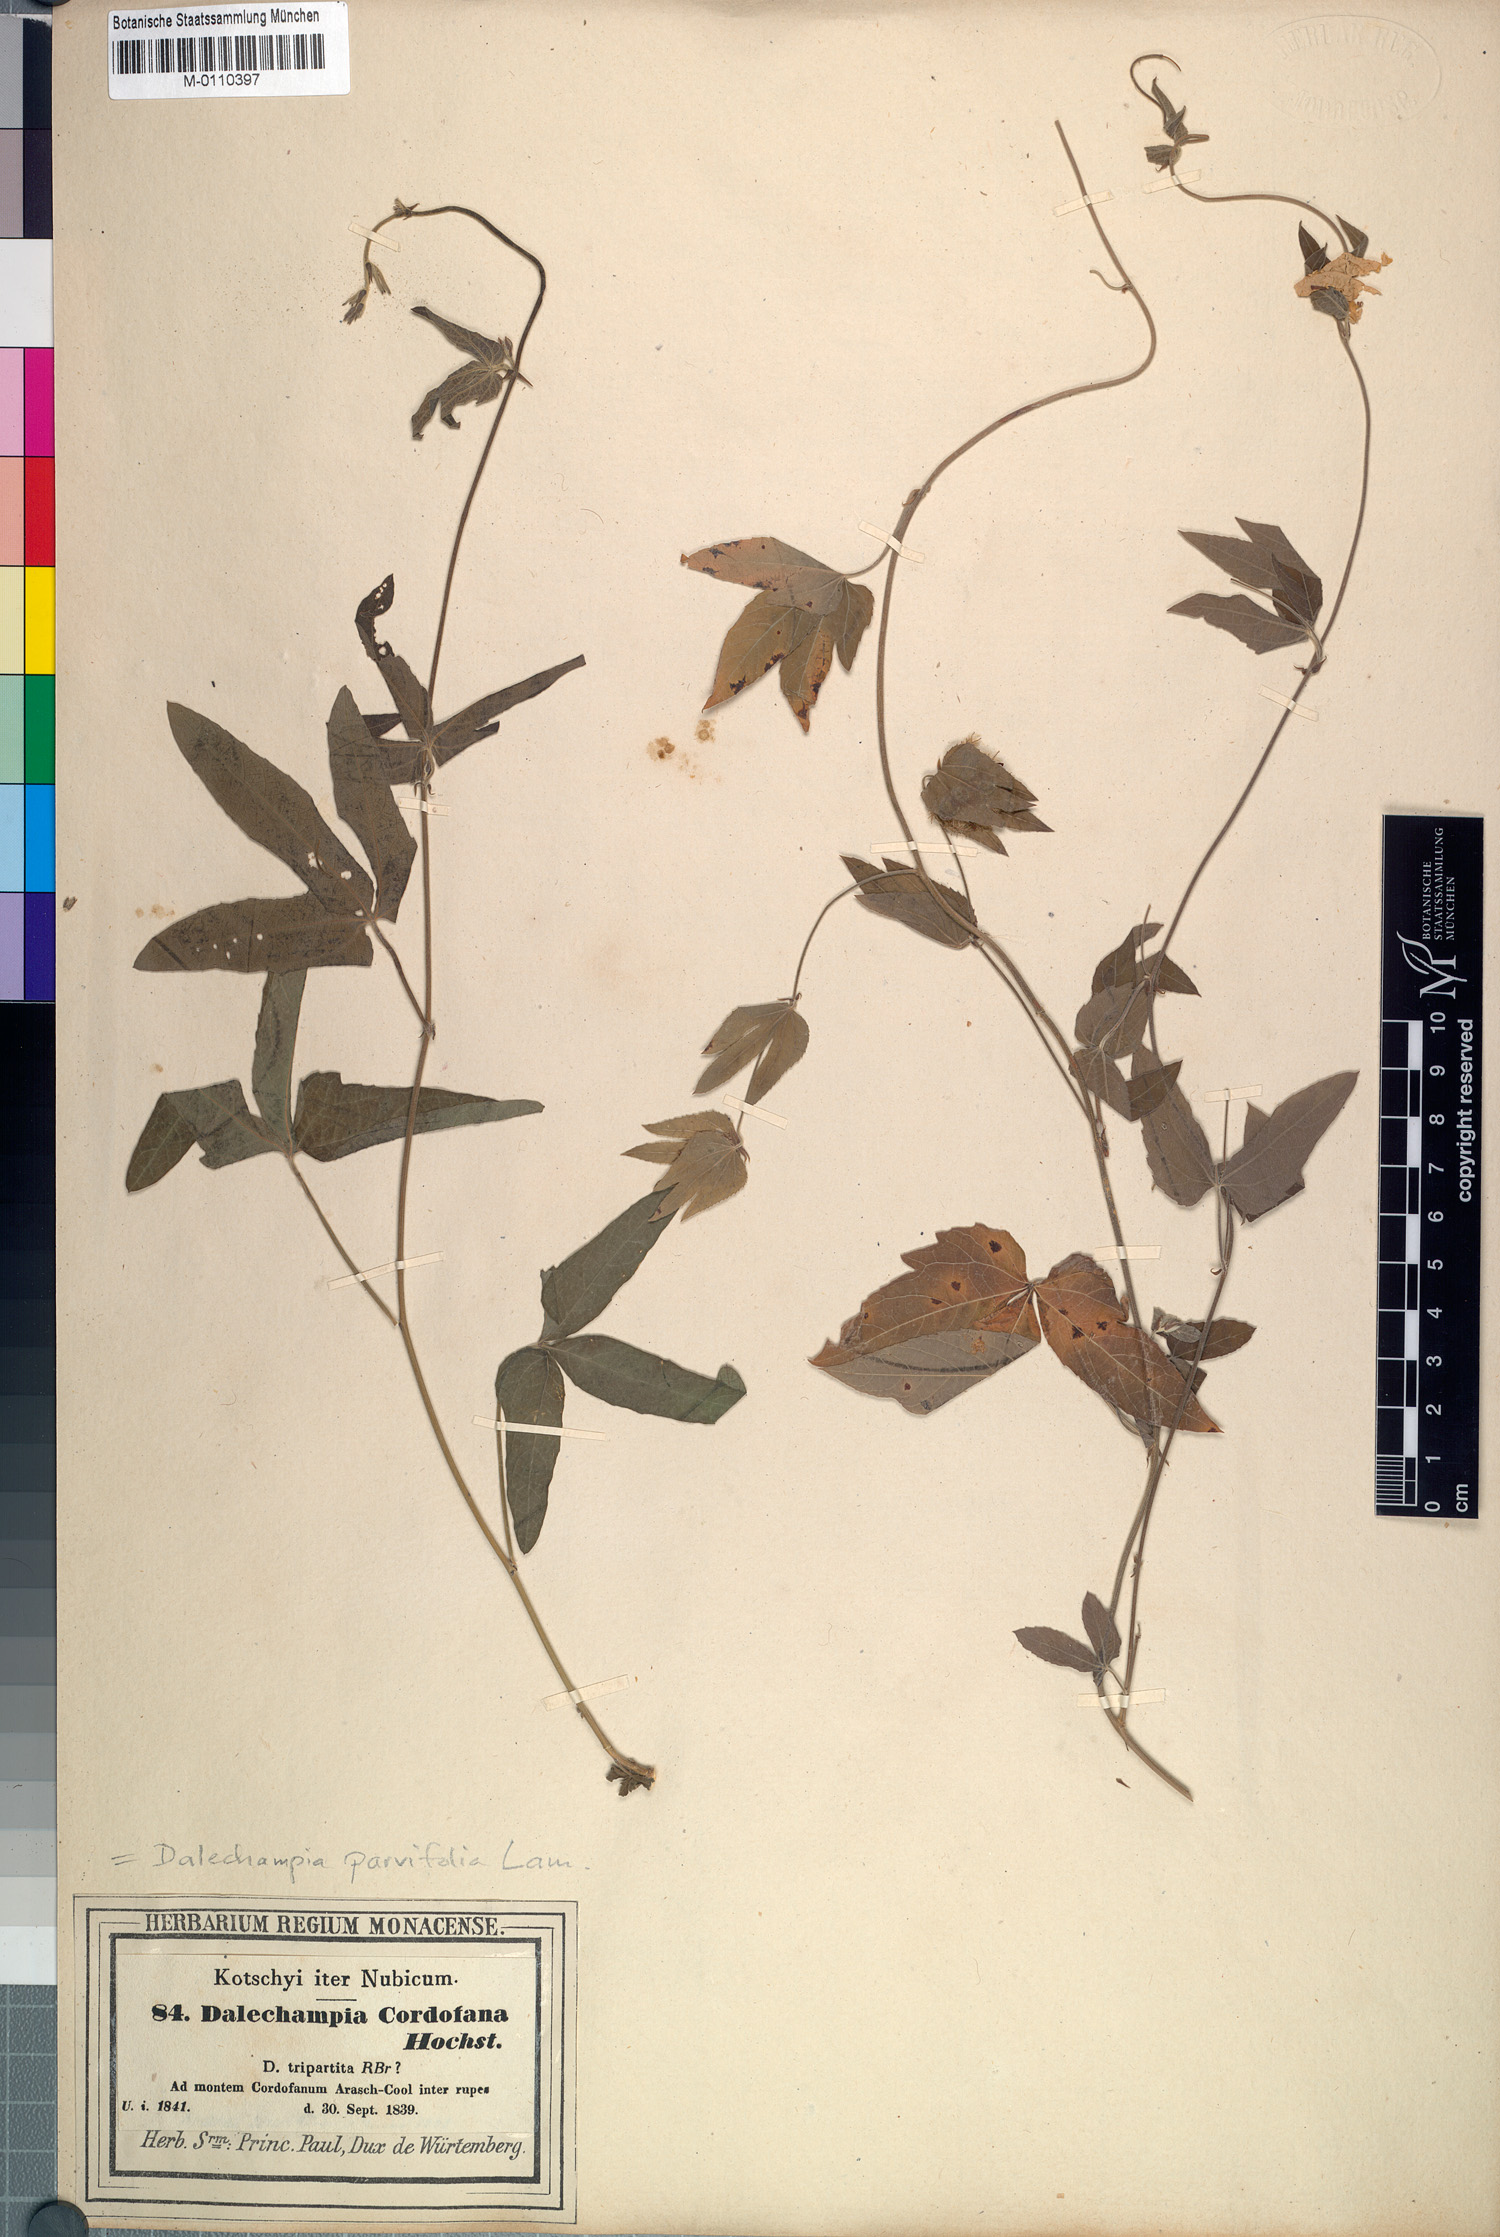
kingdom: Plantae
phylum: Tracheophyta
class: Magnoliopsida
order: Malpighiales
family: Euphorbiaceae
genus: Dalechampia
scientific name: Dalechampia scandens
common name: Spurgecreeper
